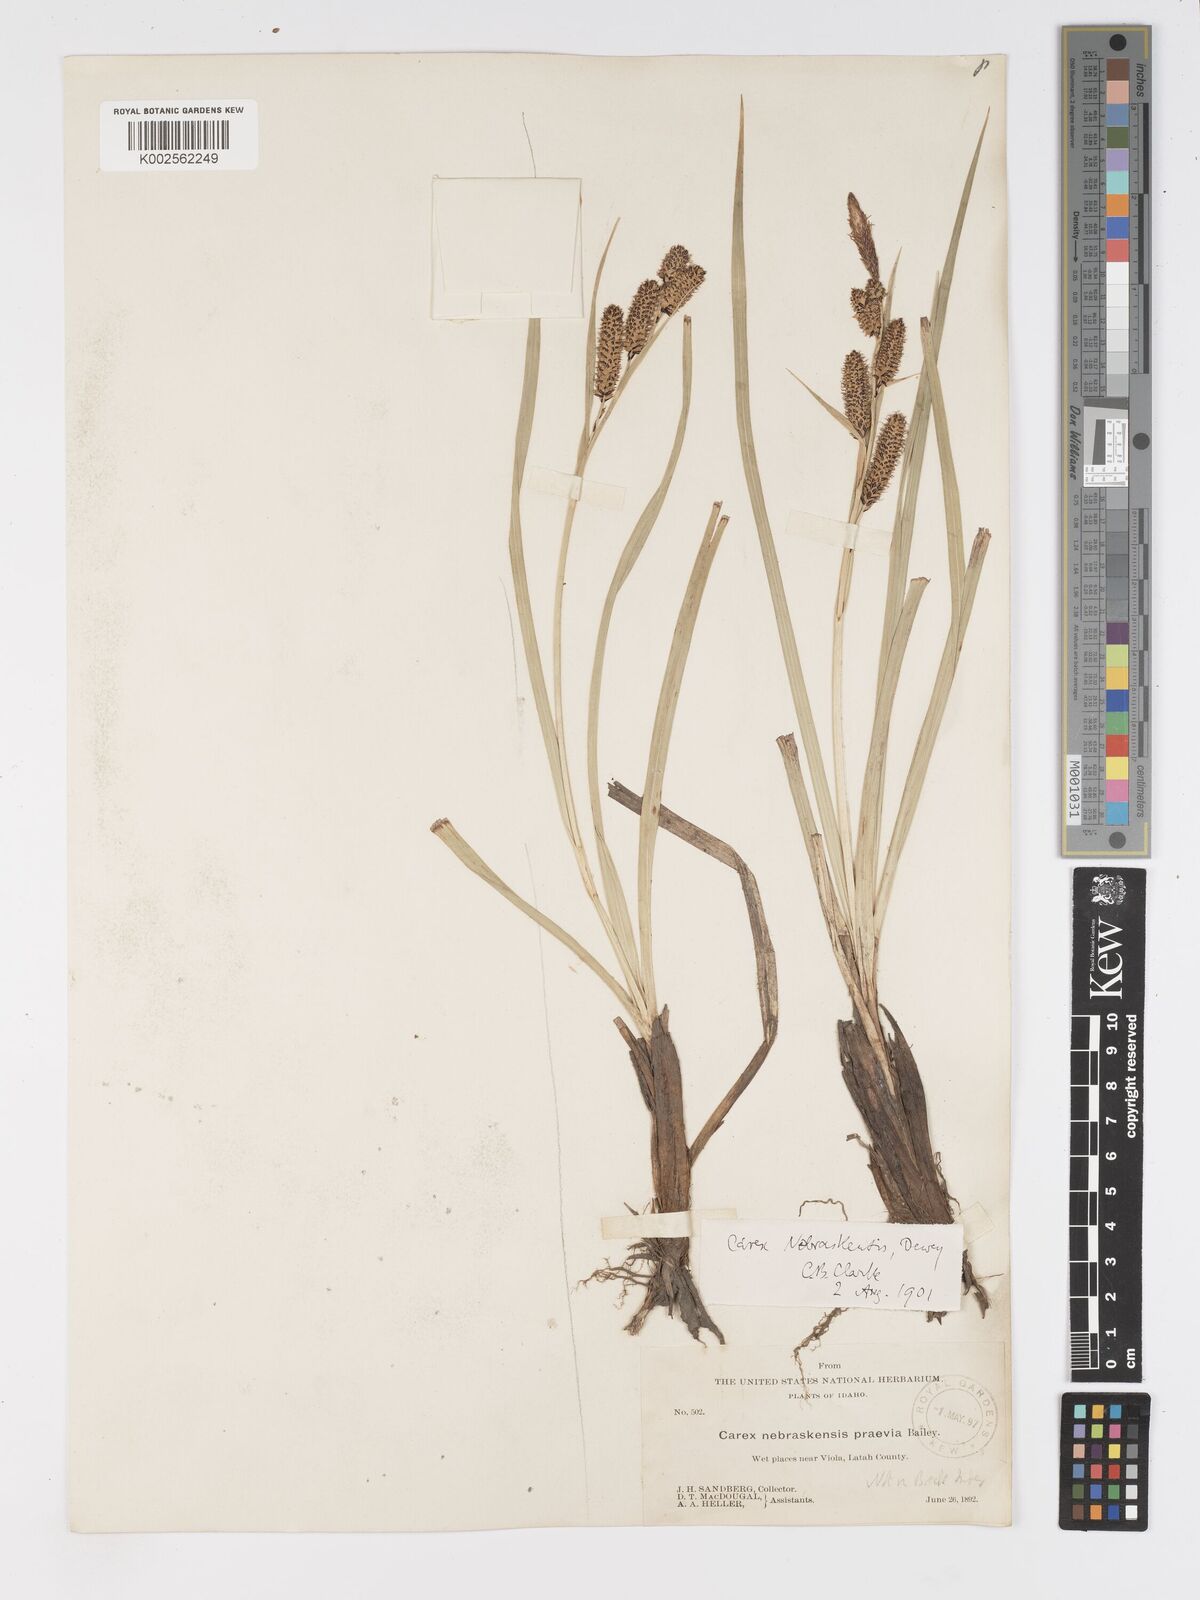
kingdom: Plantae
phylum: Tracheophyta
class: Liliopsida
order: Poales
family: Cyperaceae
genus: Carex
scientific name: Carex nebrascensis
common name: Nebraska sedge
